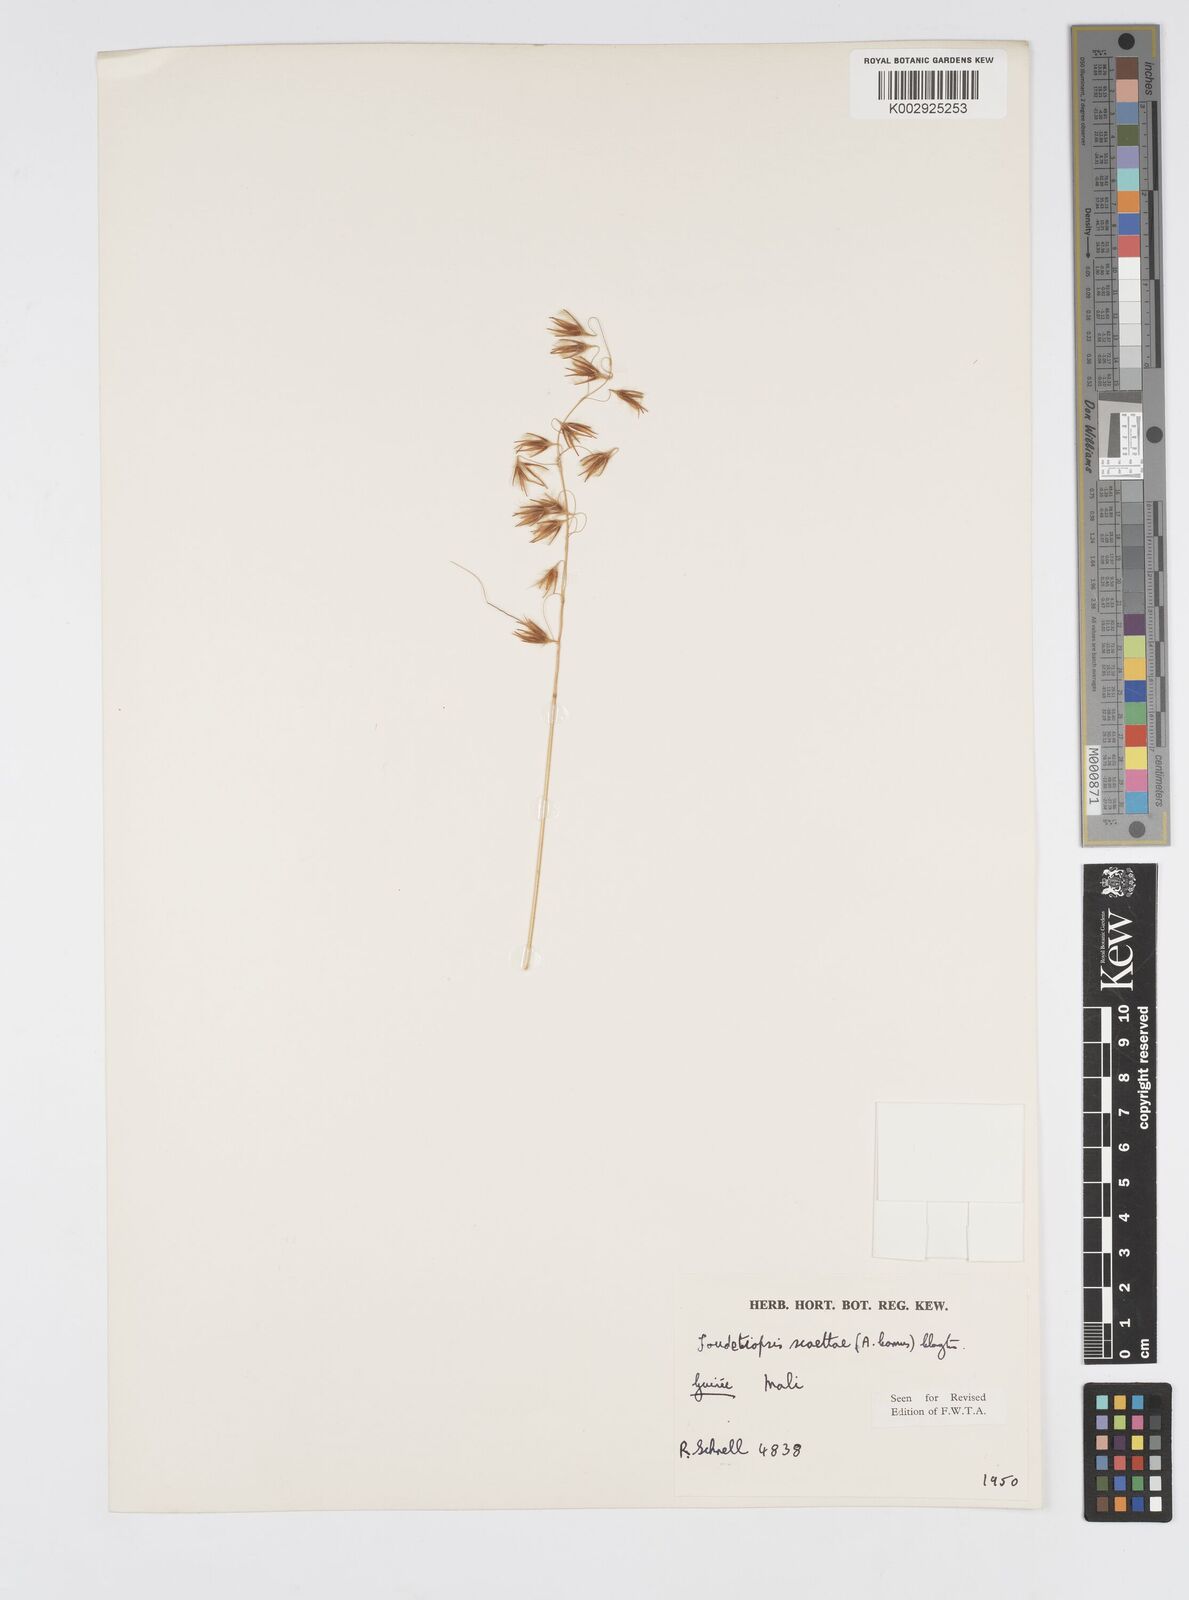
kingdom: Plantae
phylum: Tracheophyta
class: Liliopsida
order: Poales
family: Poaceae
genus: Loudetiopsis
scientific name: Loudetiopsis scaettae
